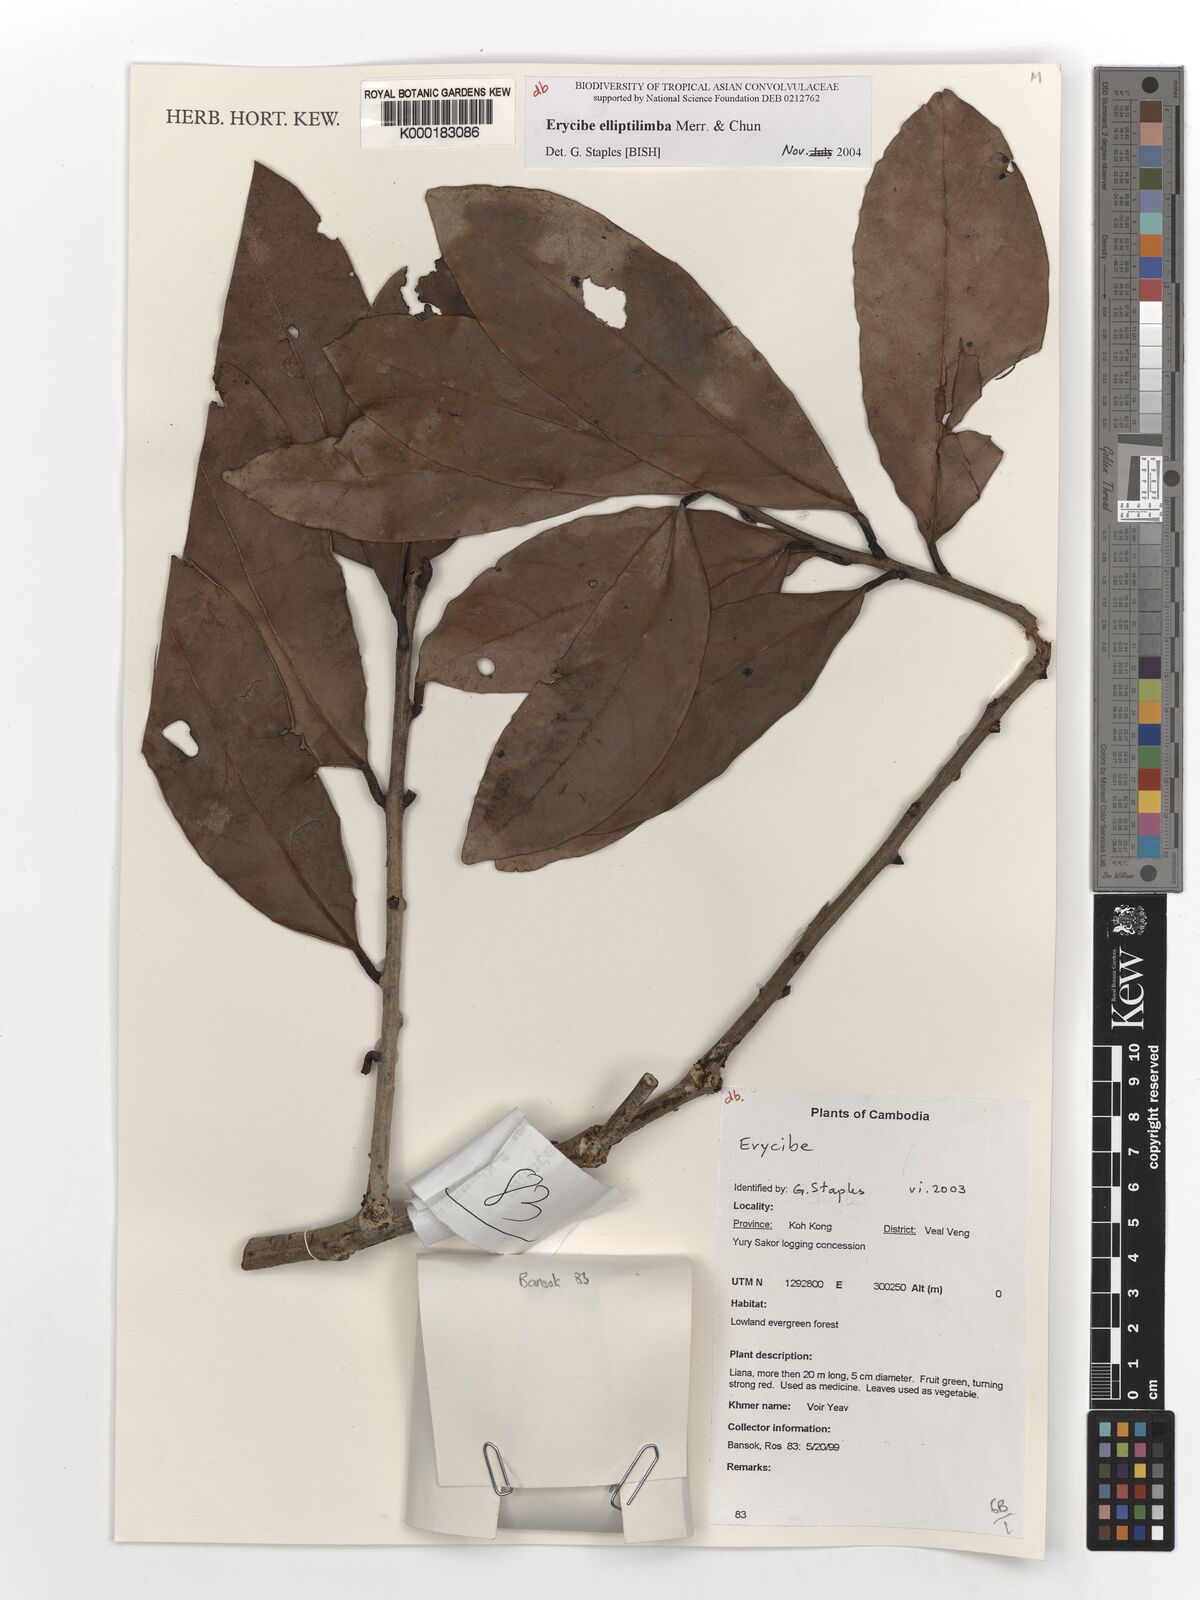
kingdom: Plantae
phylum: Tracheophyta
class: Magnoliopsida
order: Solanales
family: Convolvulaceae
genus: Erycibe
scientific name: Erycibe
